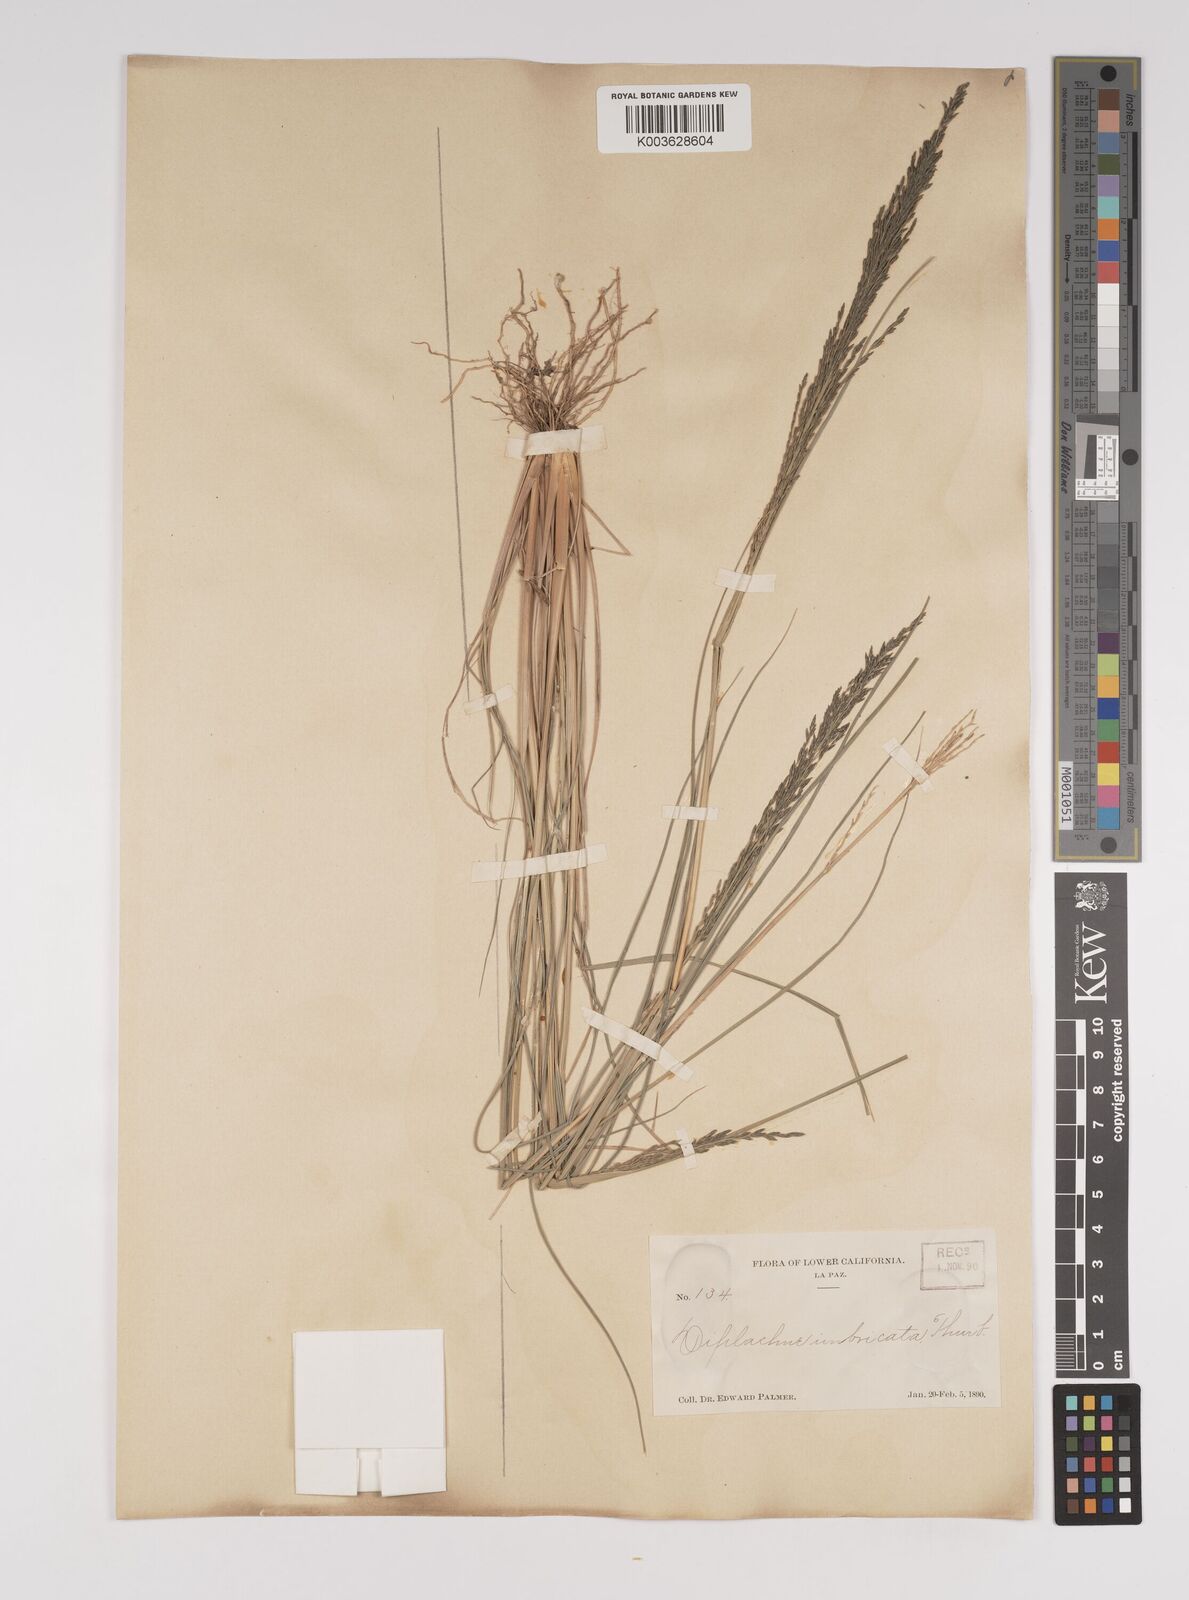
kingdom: Plantae
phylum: Tracheophyta
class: Liliopsida
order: Poales
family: Poaceae
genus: Diplachne
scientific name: Diplachne fusca
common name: Brown beetle grass
